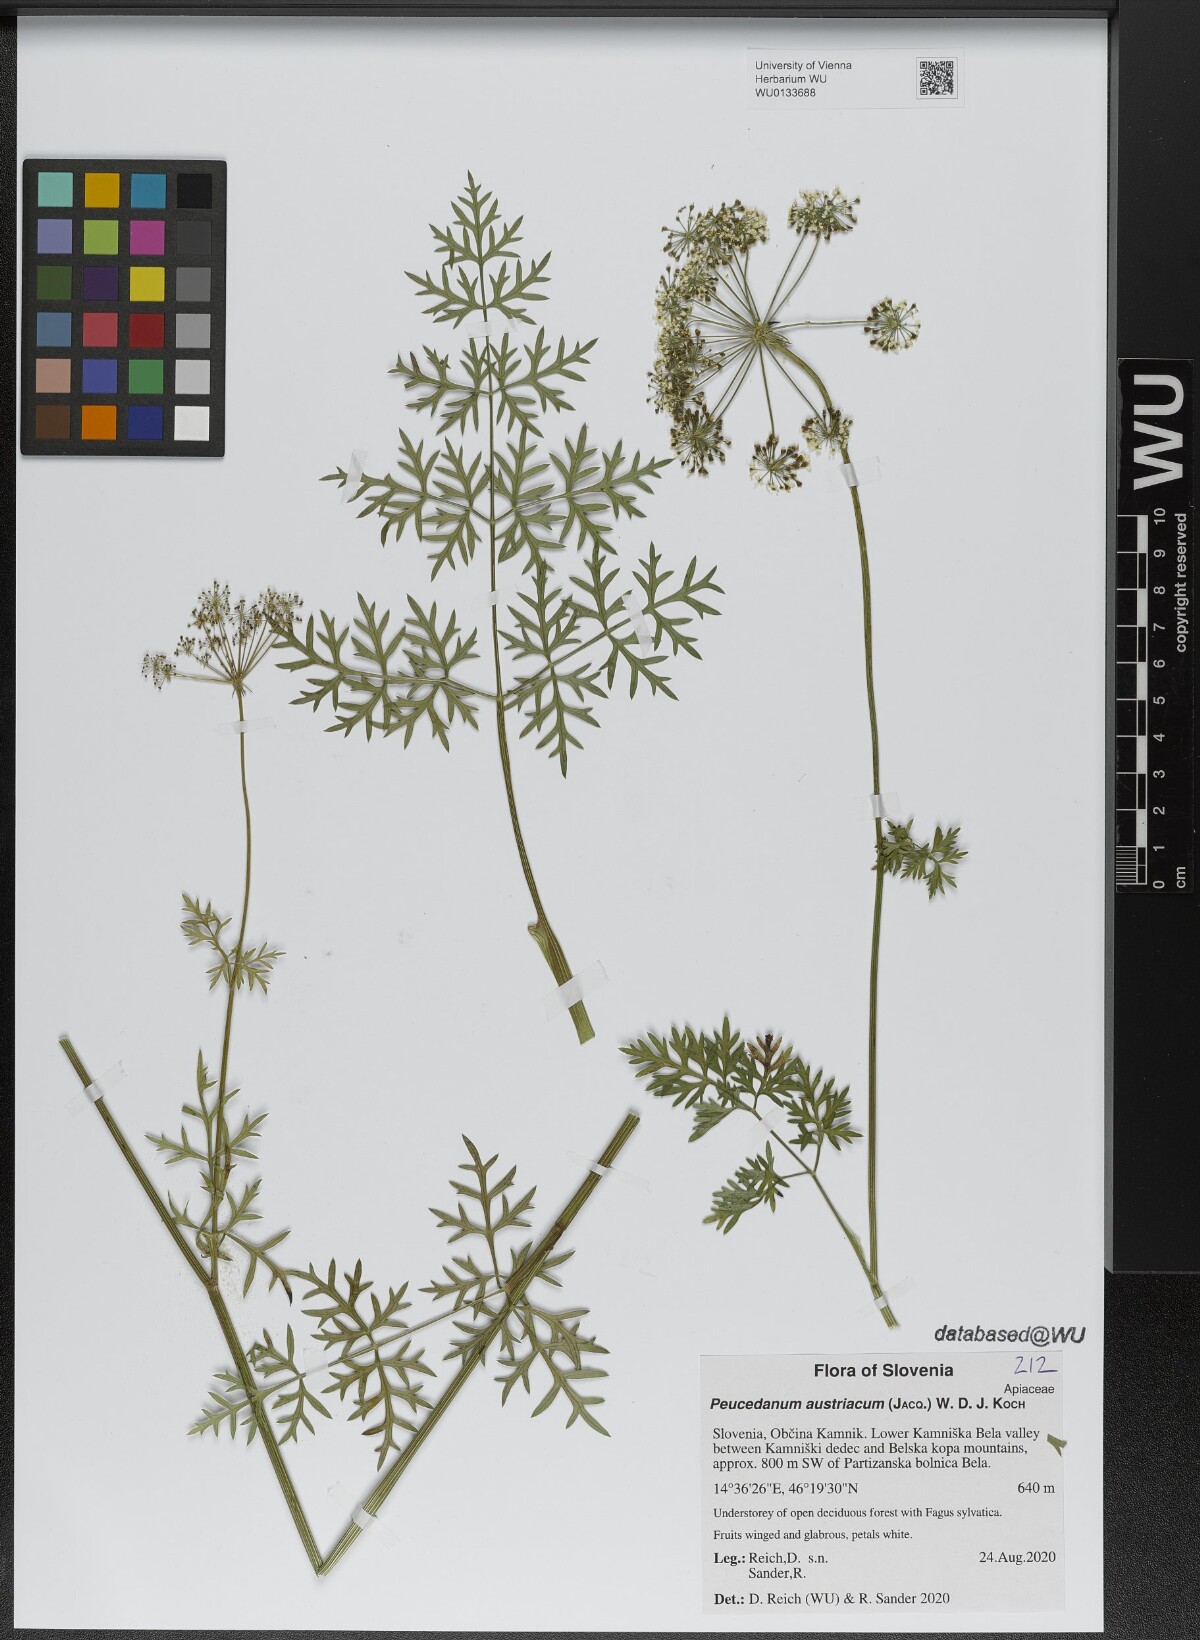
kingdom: Plantae
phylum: Tracheophyta
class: Magnoliopsida
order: Apiales
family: Apiaceae
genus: Peucedanum
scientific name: Peucedanum austriacum
